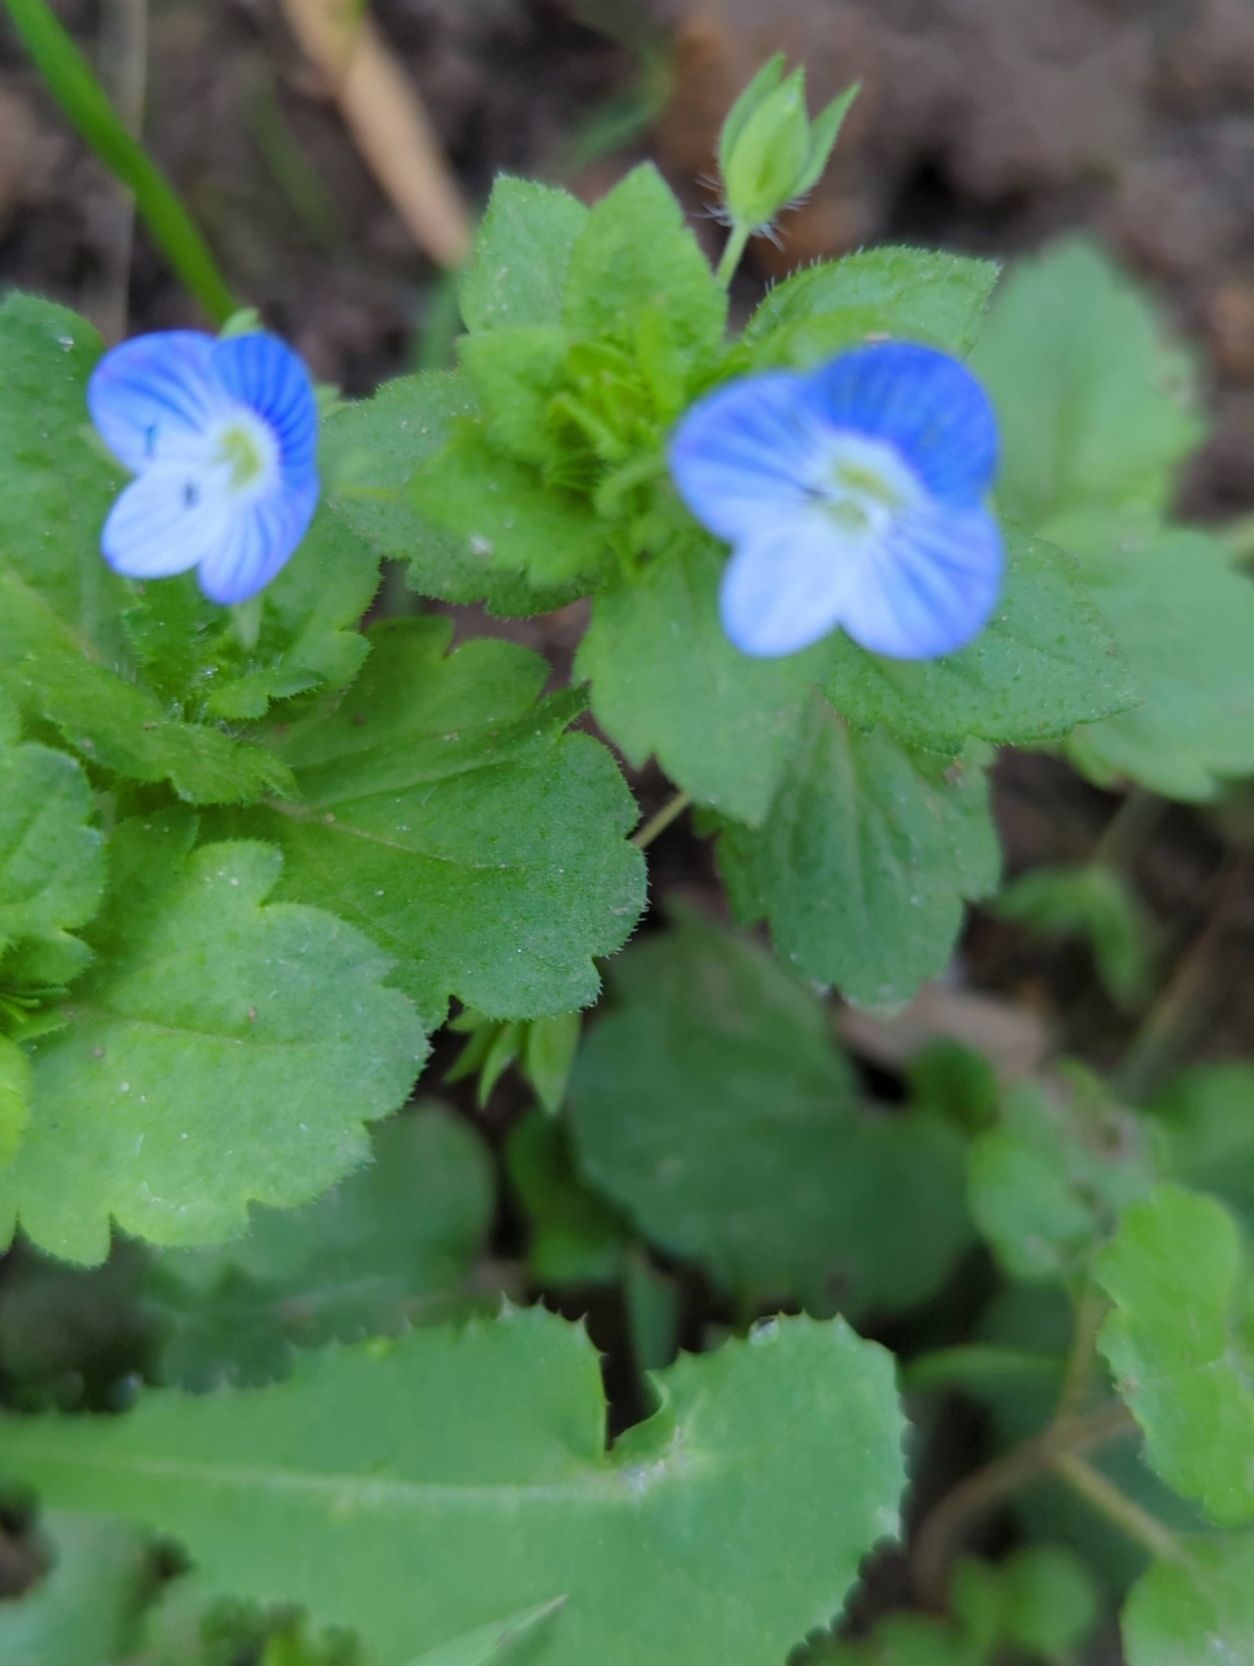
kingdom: Plantae
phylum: Tracheophyta
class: Magnoliopsida
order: Lamiales
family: Plantaginaceae
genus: Veronica
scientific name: Veronica persica
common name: Storkronet ærenpris
